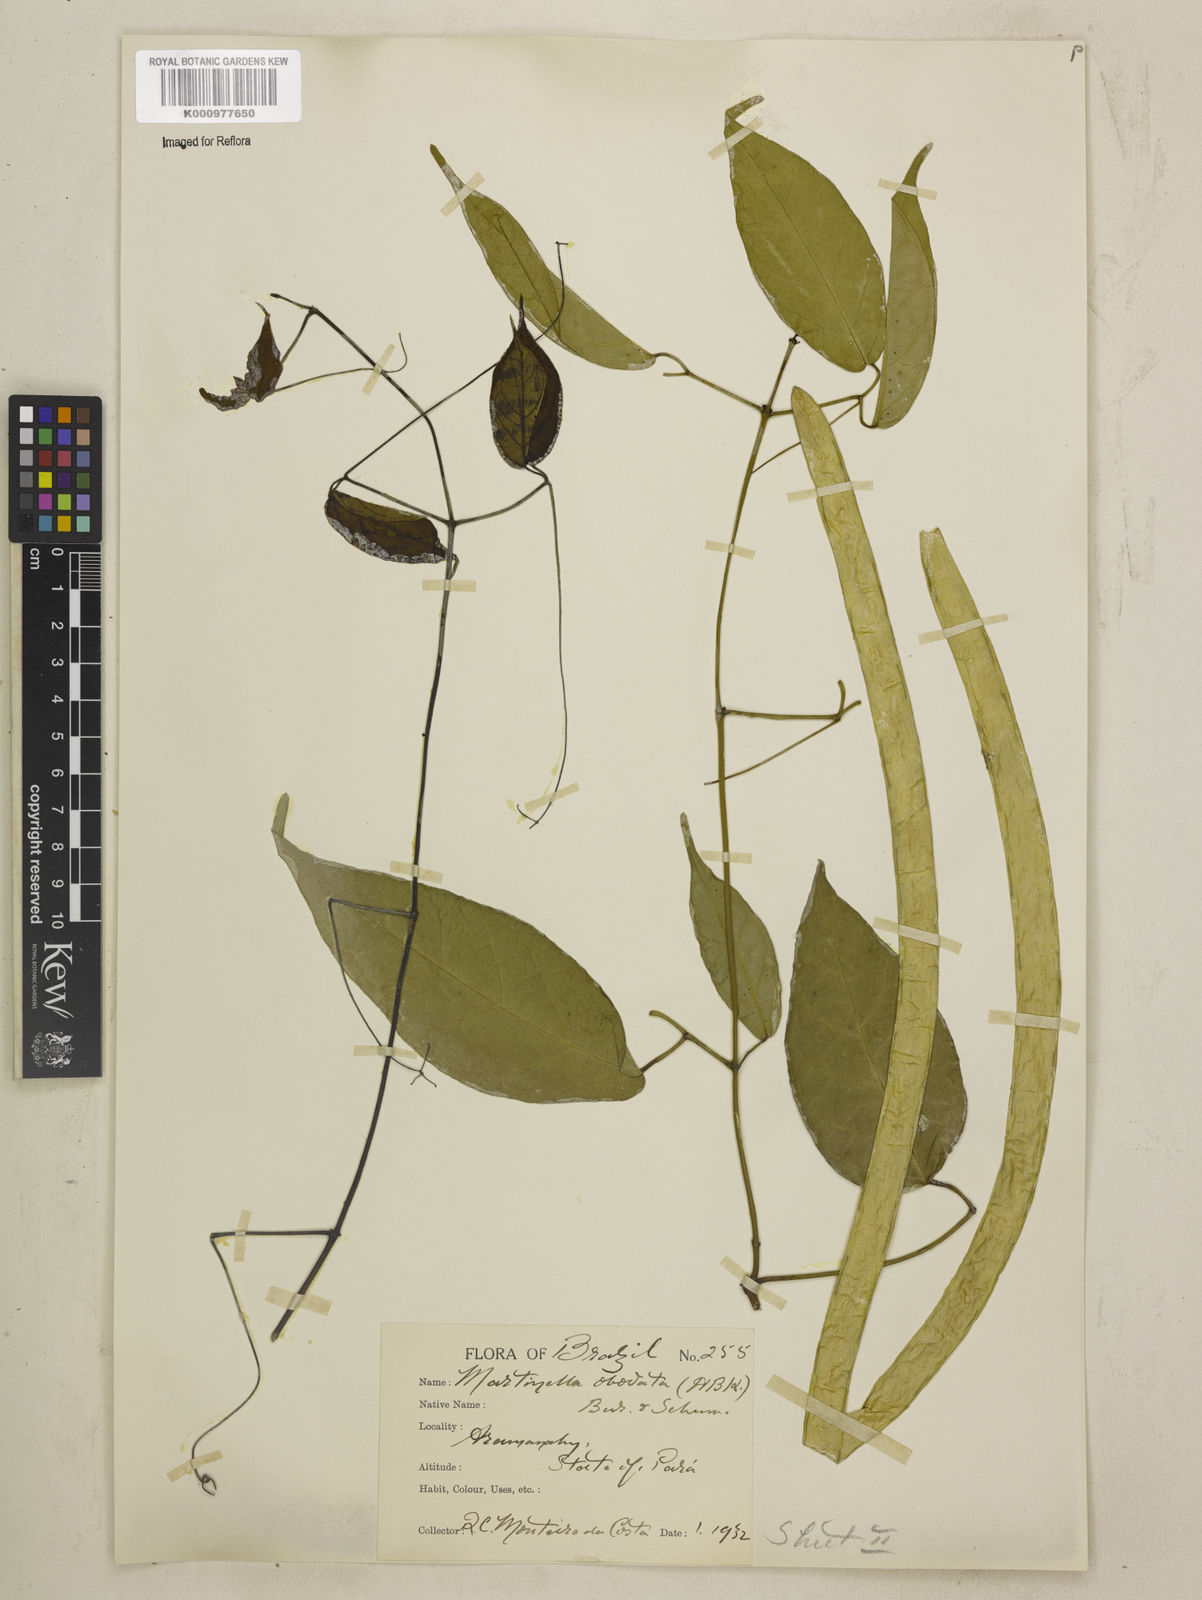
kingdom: Animalia
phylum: Arthropoda
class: Insecta
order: Coleoptera
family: Chrysomelidae
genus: Martinella
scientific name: Martinella obovata
